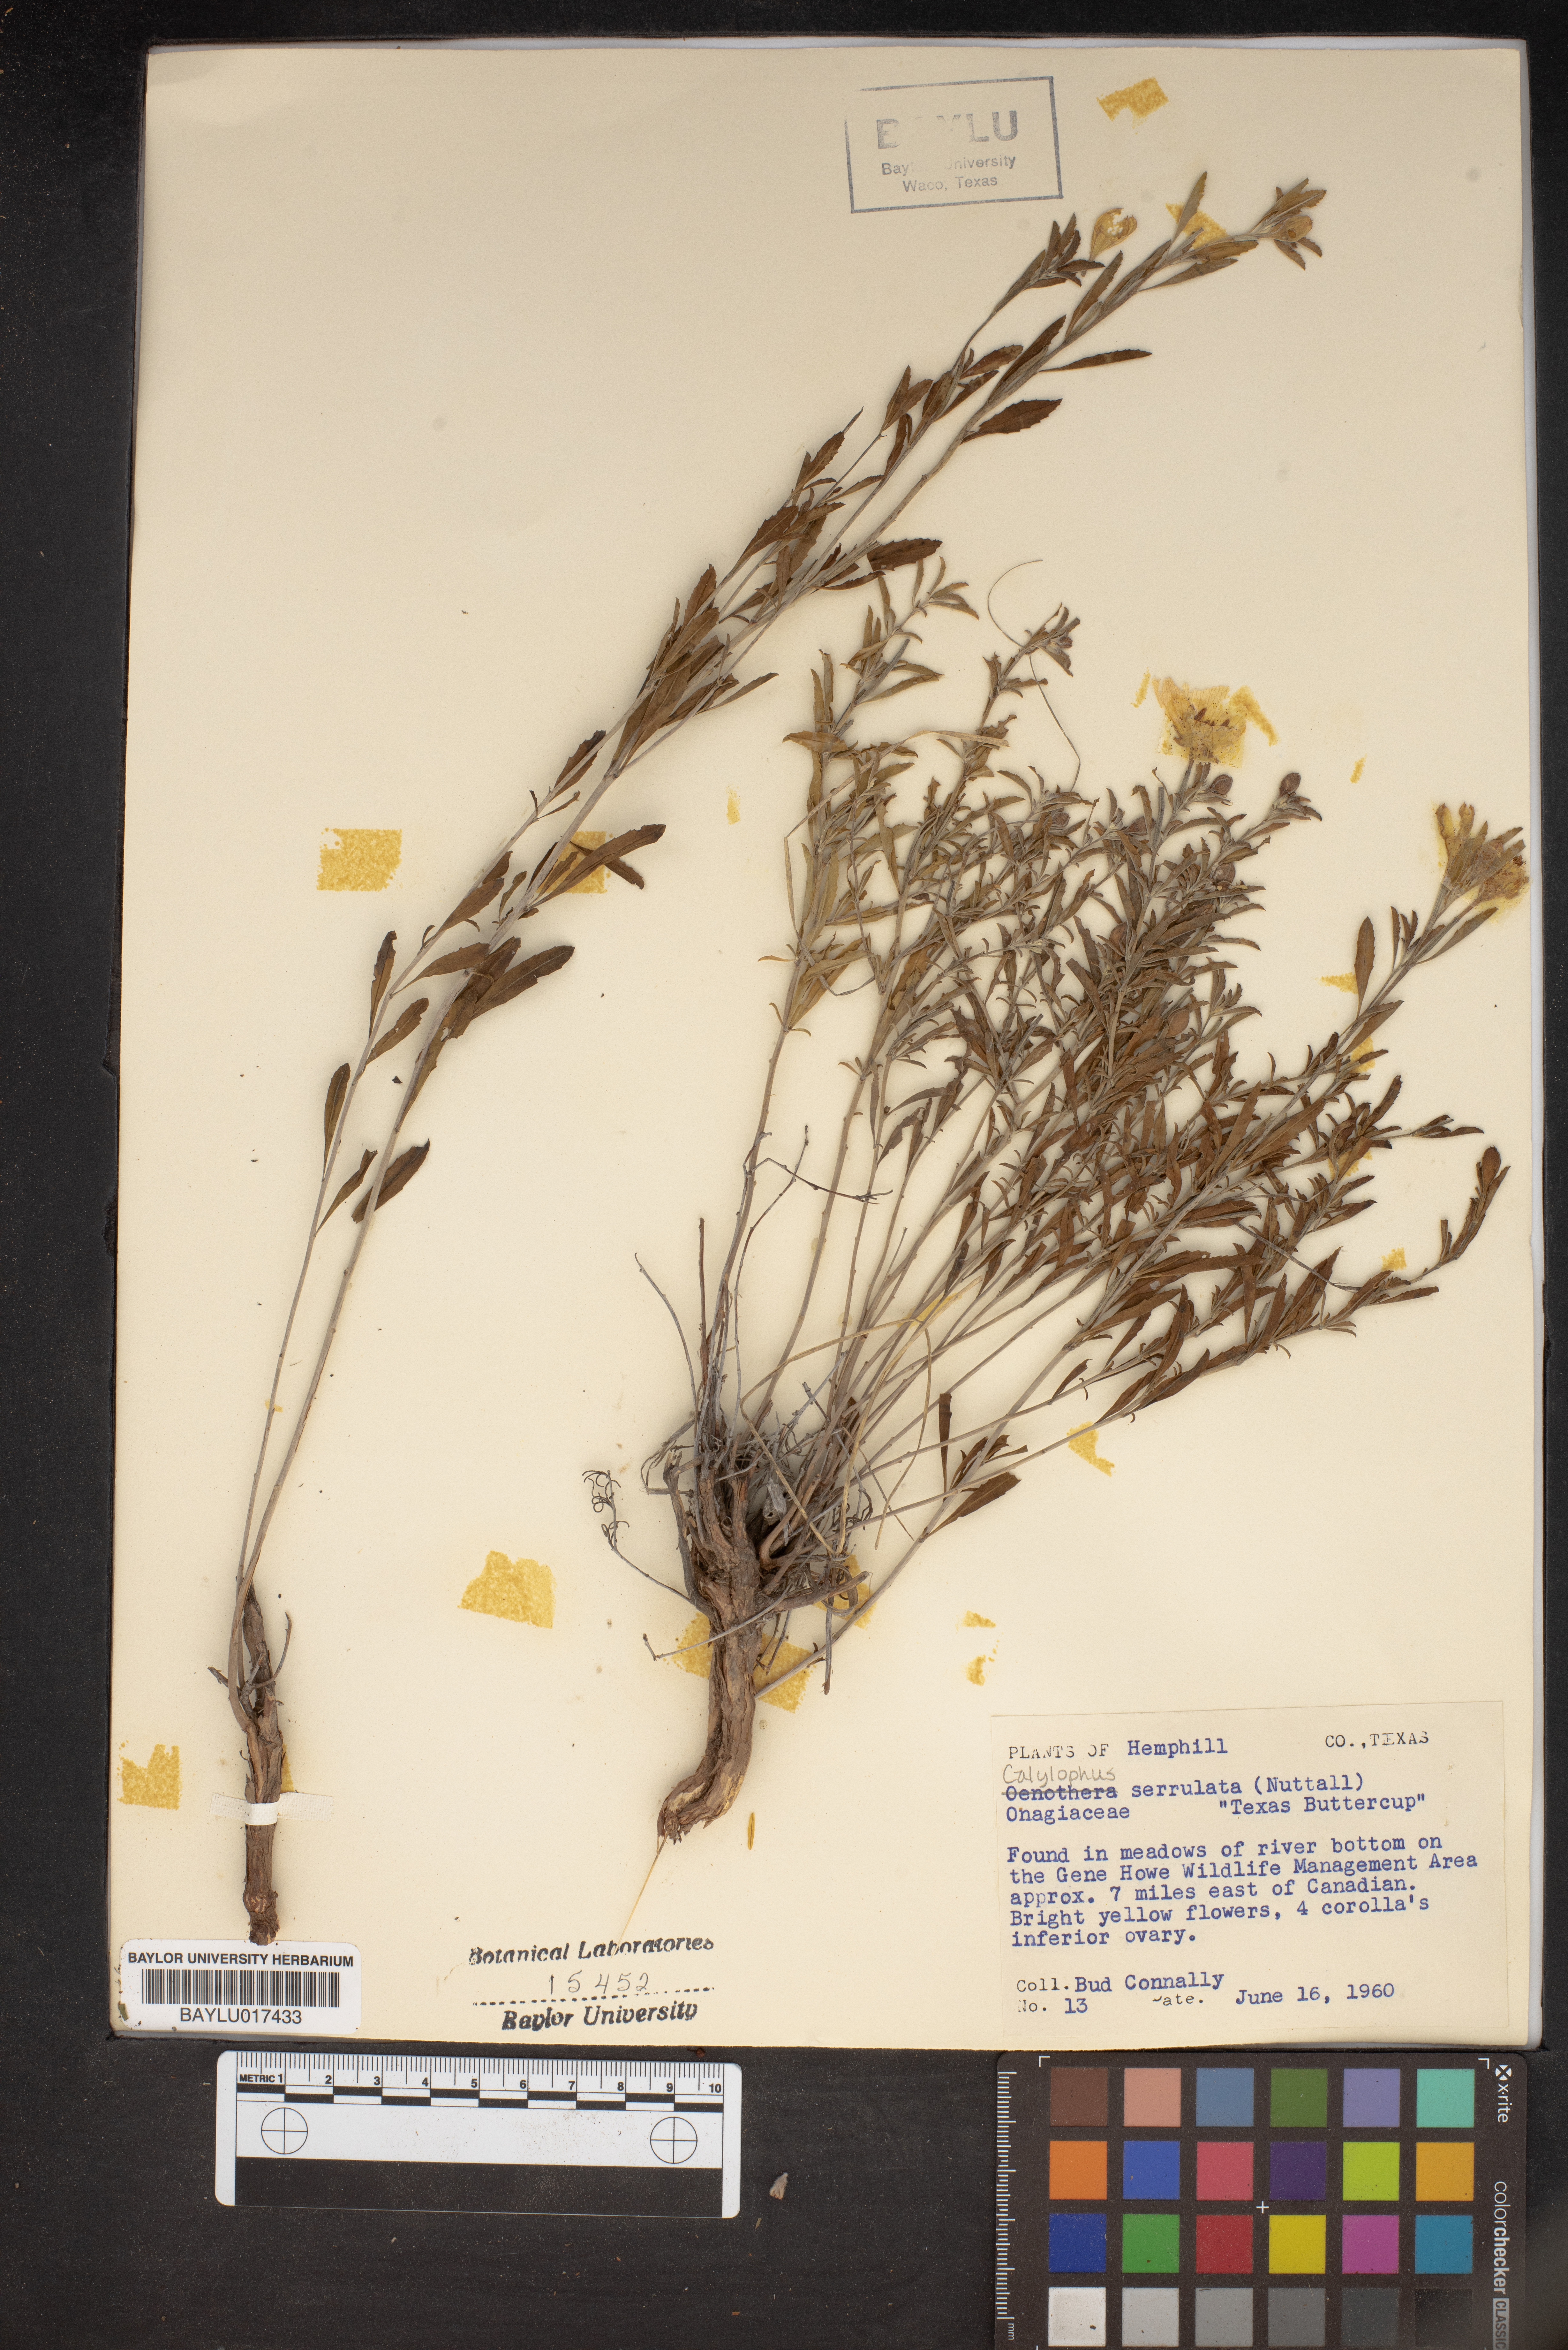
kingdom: Plantae
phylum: Tracheophyta
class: Magnoliopsida
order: Myrtales
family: Onagraceae
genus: Oenothera
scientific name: Oenothera serrulata
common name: Half-shrub calylophus
